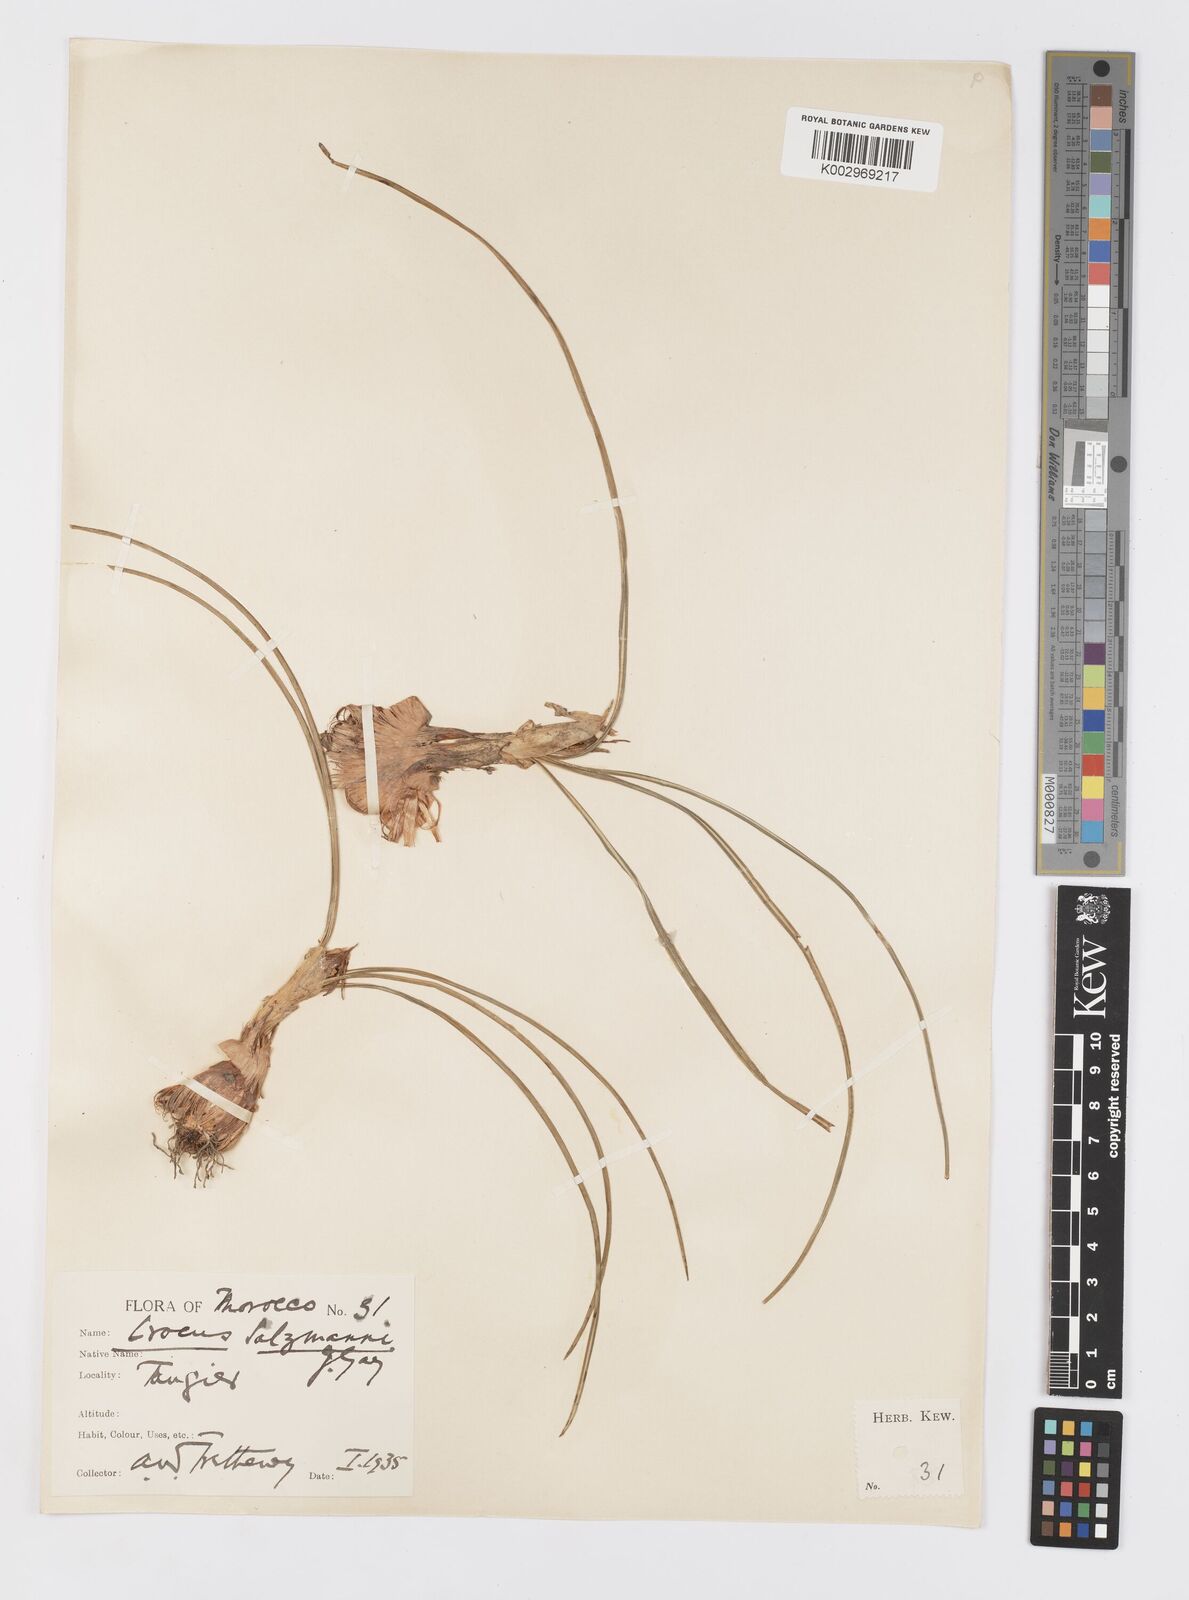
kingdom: Plantae
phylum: Tracheophyta
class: Liliopsida
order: Asparagales
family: Iridaceae
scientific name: Iridaceae
